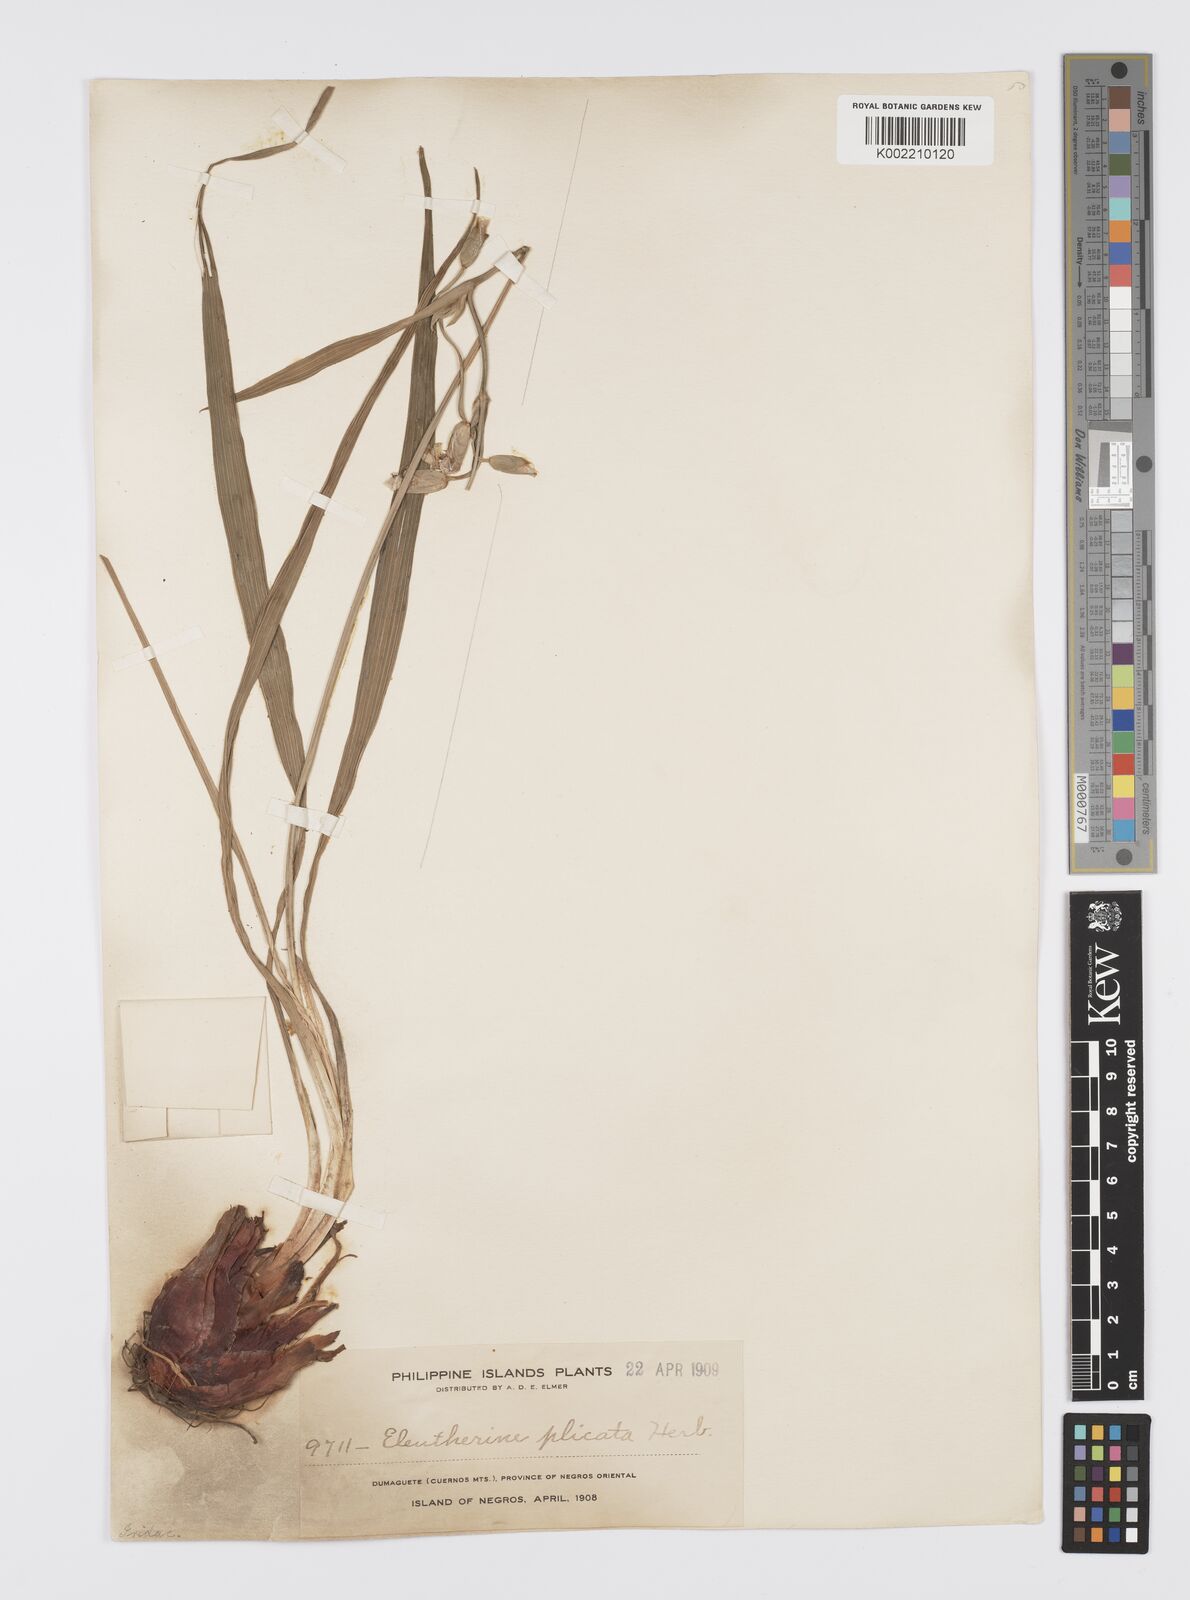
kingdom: Plantae
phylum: Tracheophyta
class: Liliopsida
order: Asparagales
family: Iridaceae
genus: Eleutherine
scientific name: Eleutherine bulbosa
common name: Lagrimas de la virgen
